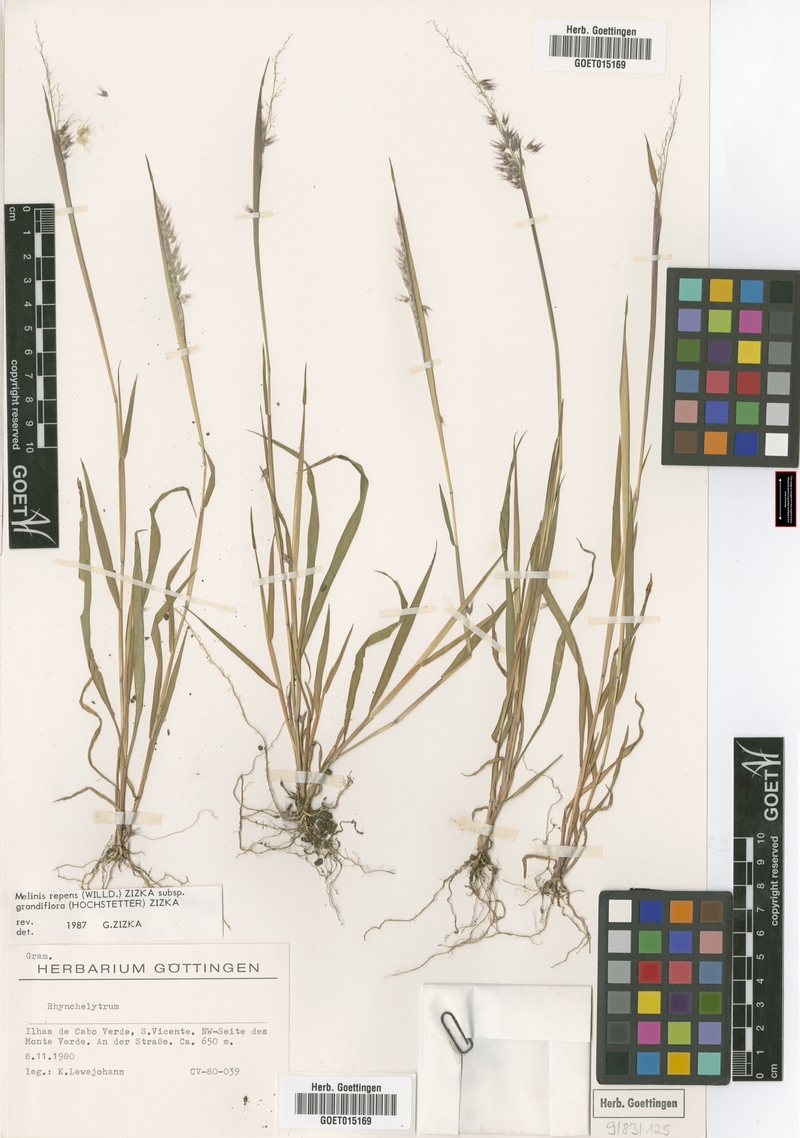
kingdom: Plantae
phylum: Tracheophyta
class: Liliopsida
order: Poales
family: Poaceae
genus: Melinis
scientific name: Melinis repens
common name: Rose natal grass
